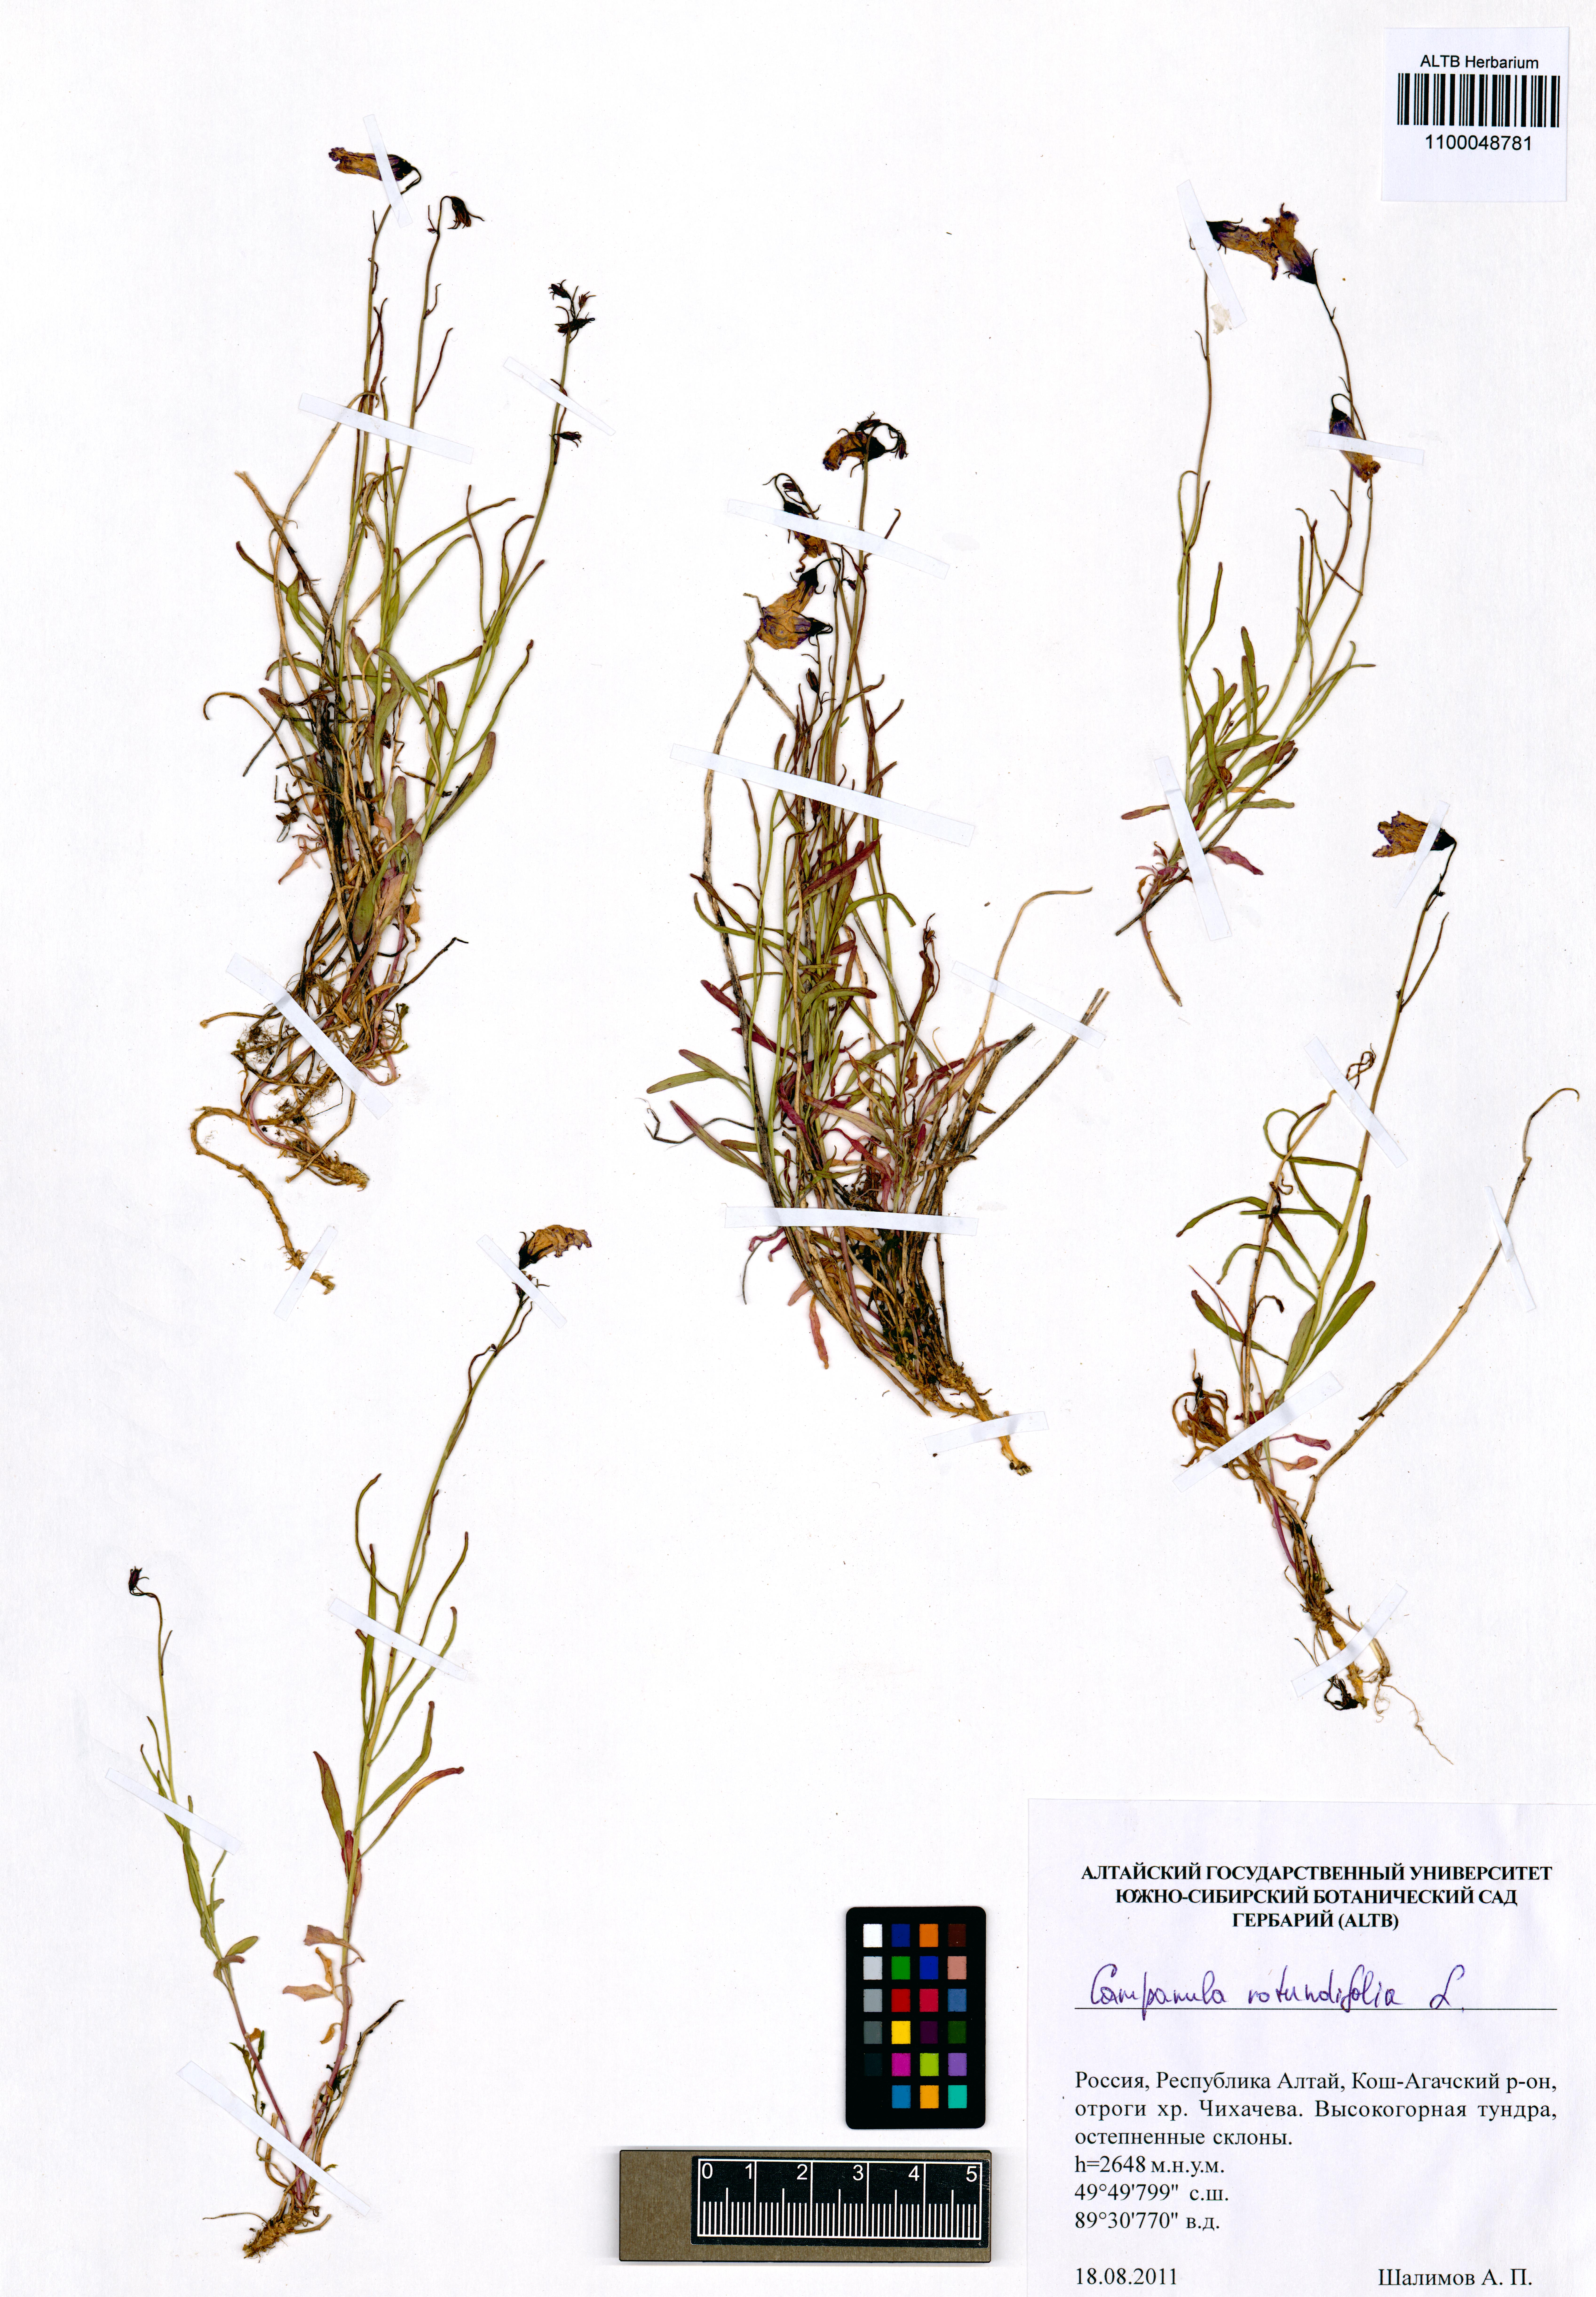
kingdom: Plantae
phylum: Tracheophyta
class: Magnoliopsida
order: Asterales
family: Campanulaceae
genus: Campanula
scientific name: Campanula rotundifolia
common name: Harebell
